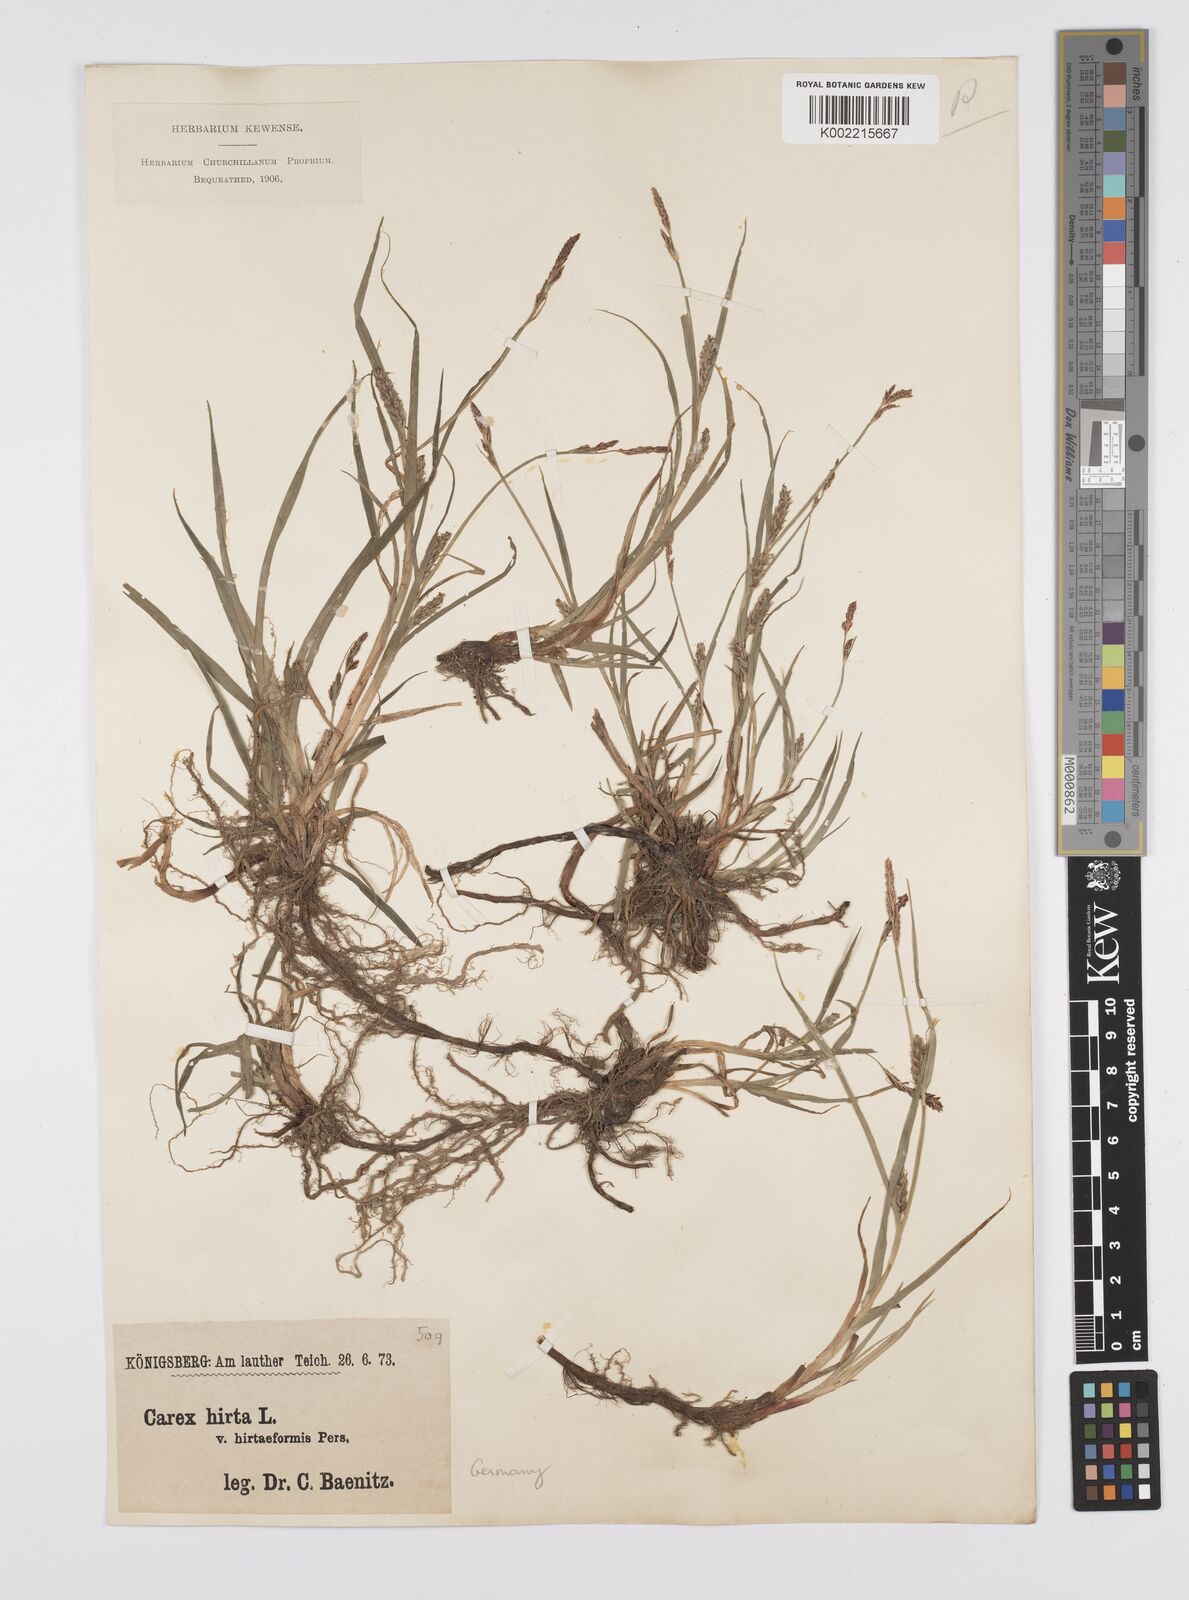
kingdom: Plantae
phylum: Tracheophyta
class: Liliopsida
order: Poales
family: Cyperaceae
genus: Carex
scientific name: Carex hirta
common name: Hairy sedge
